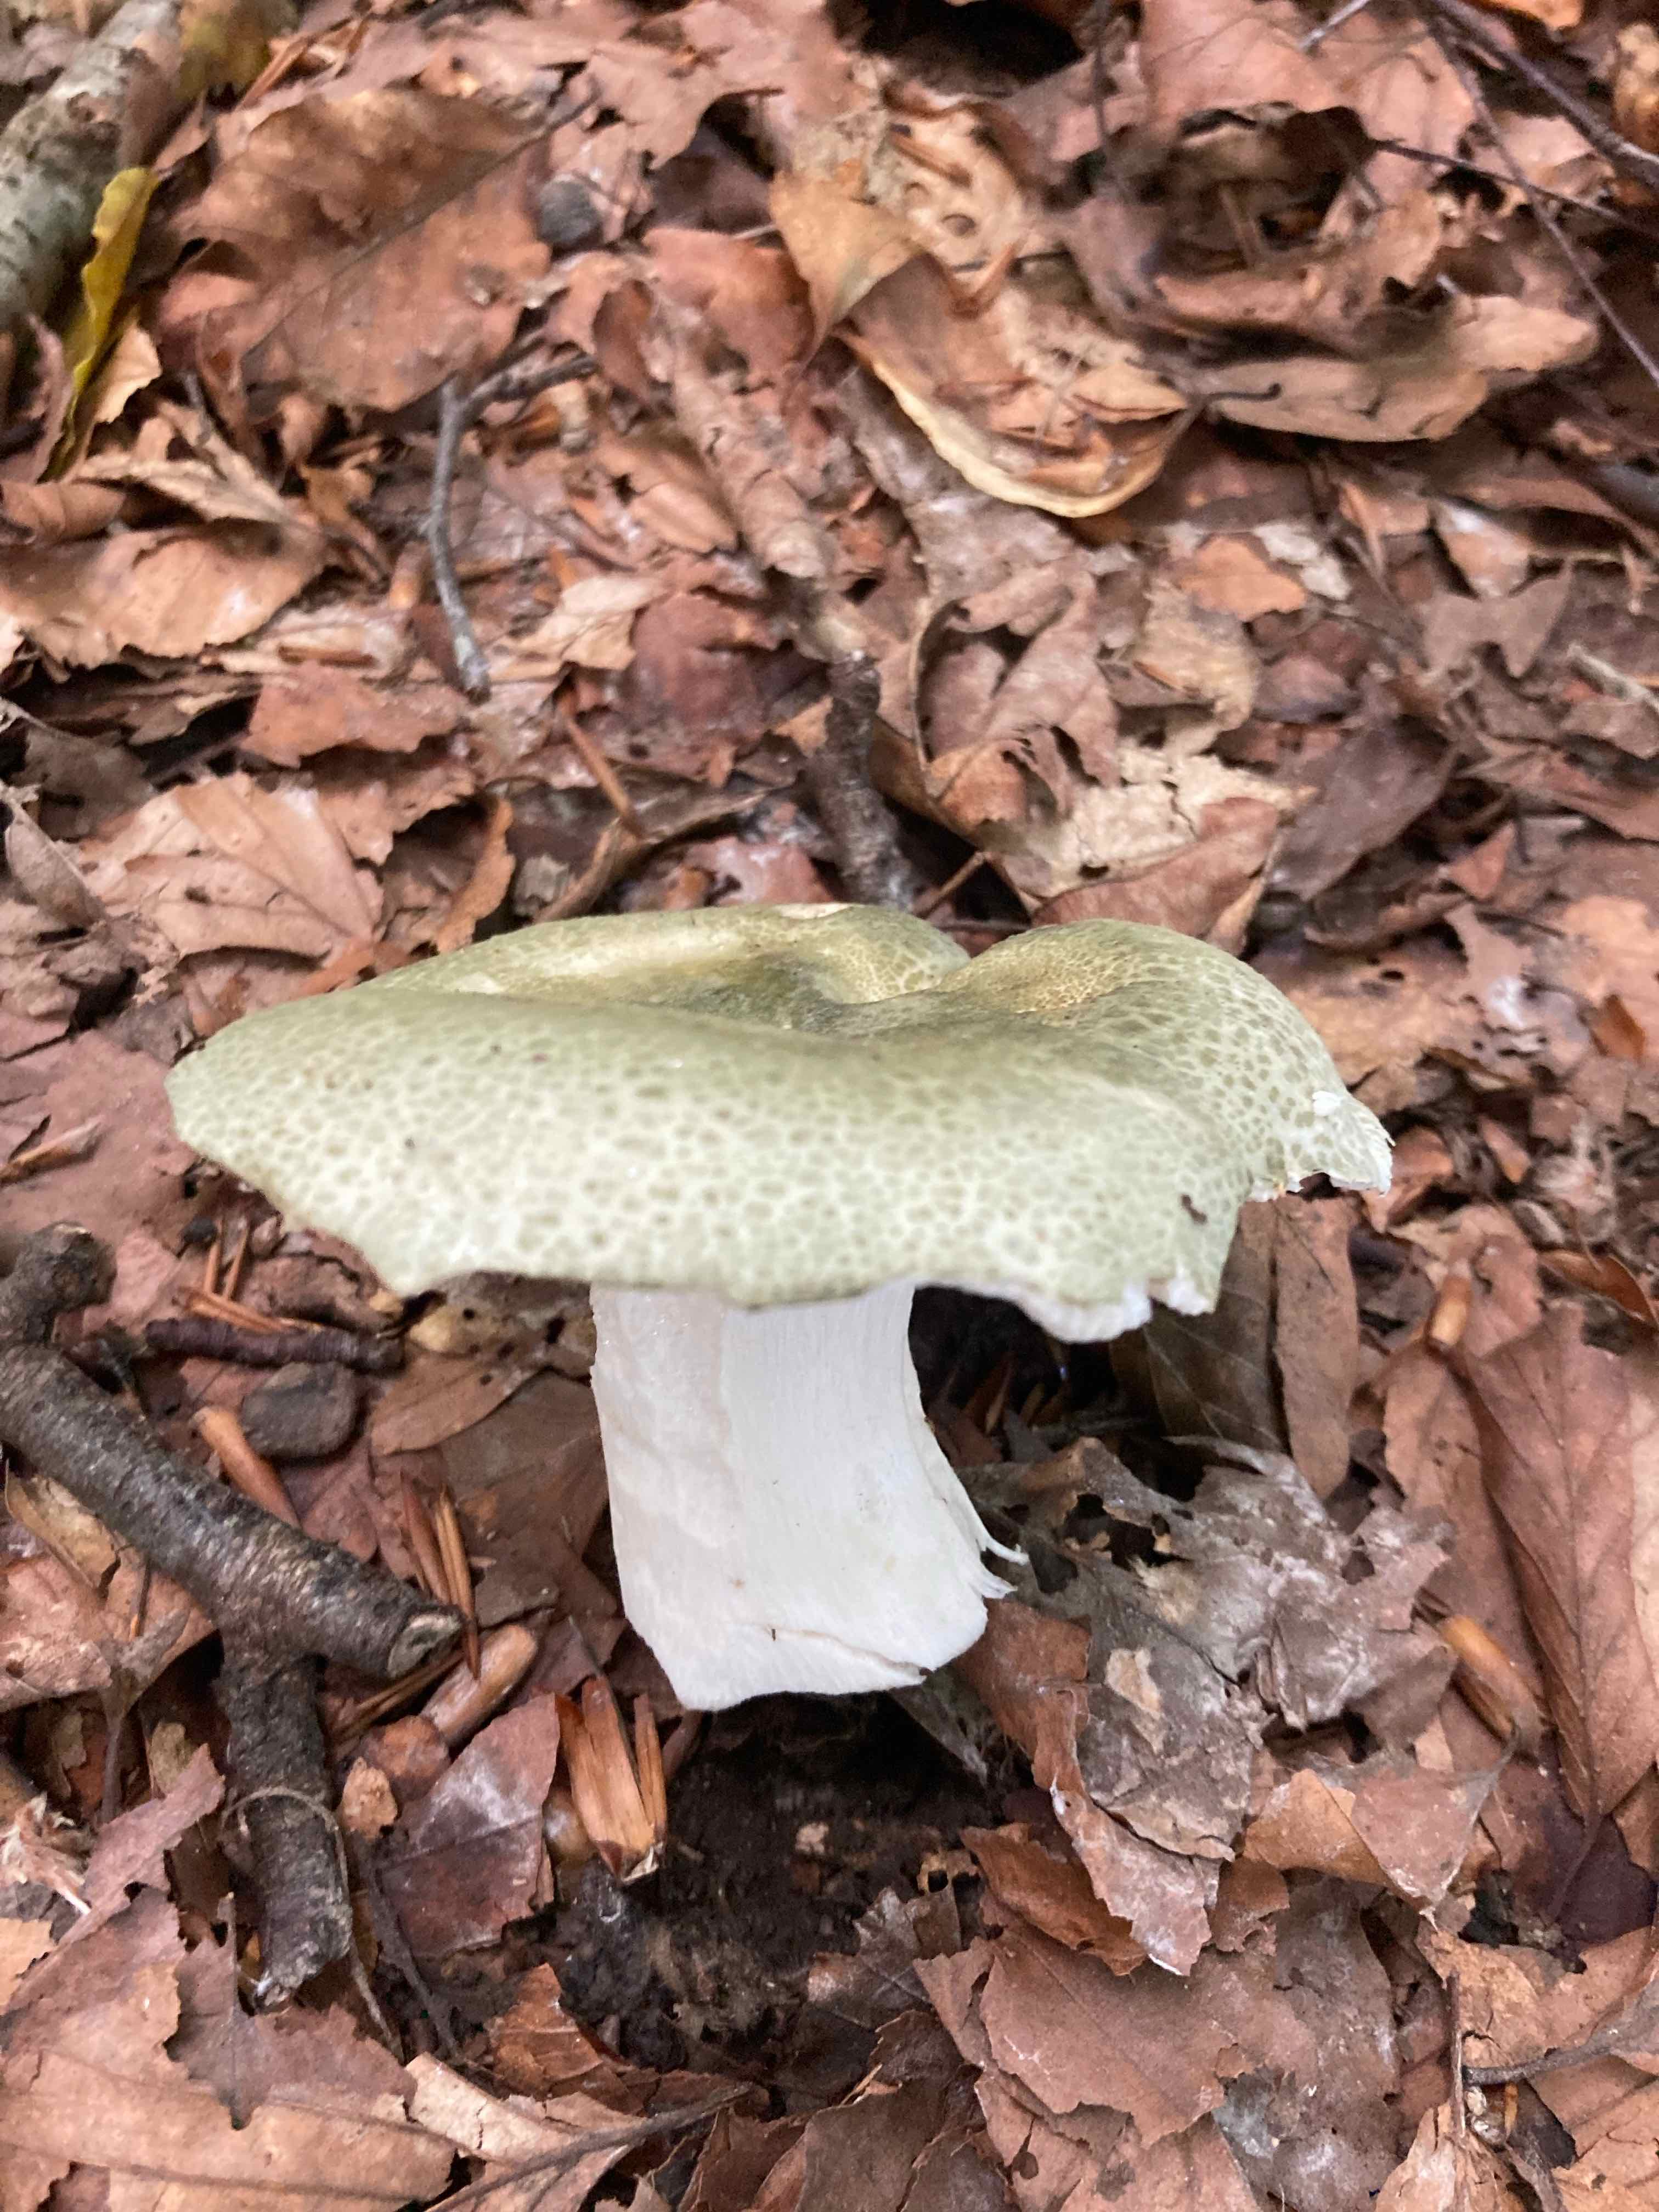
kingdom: Fungi
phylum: Basidiomycota
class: Agaricomycetes
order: Russulales
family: Russulaceae
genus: Russula
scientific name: Russula virescens
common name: spanskgrøn skørhat
